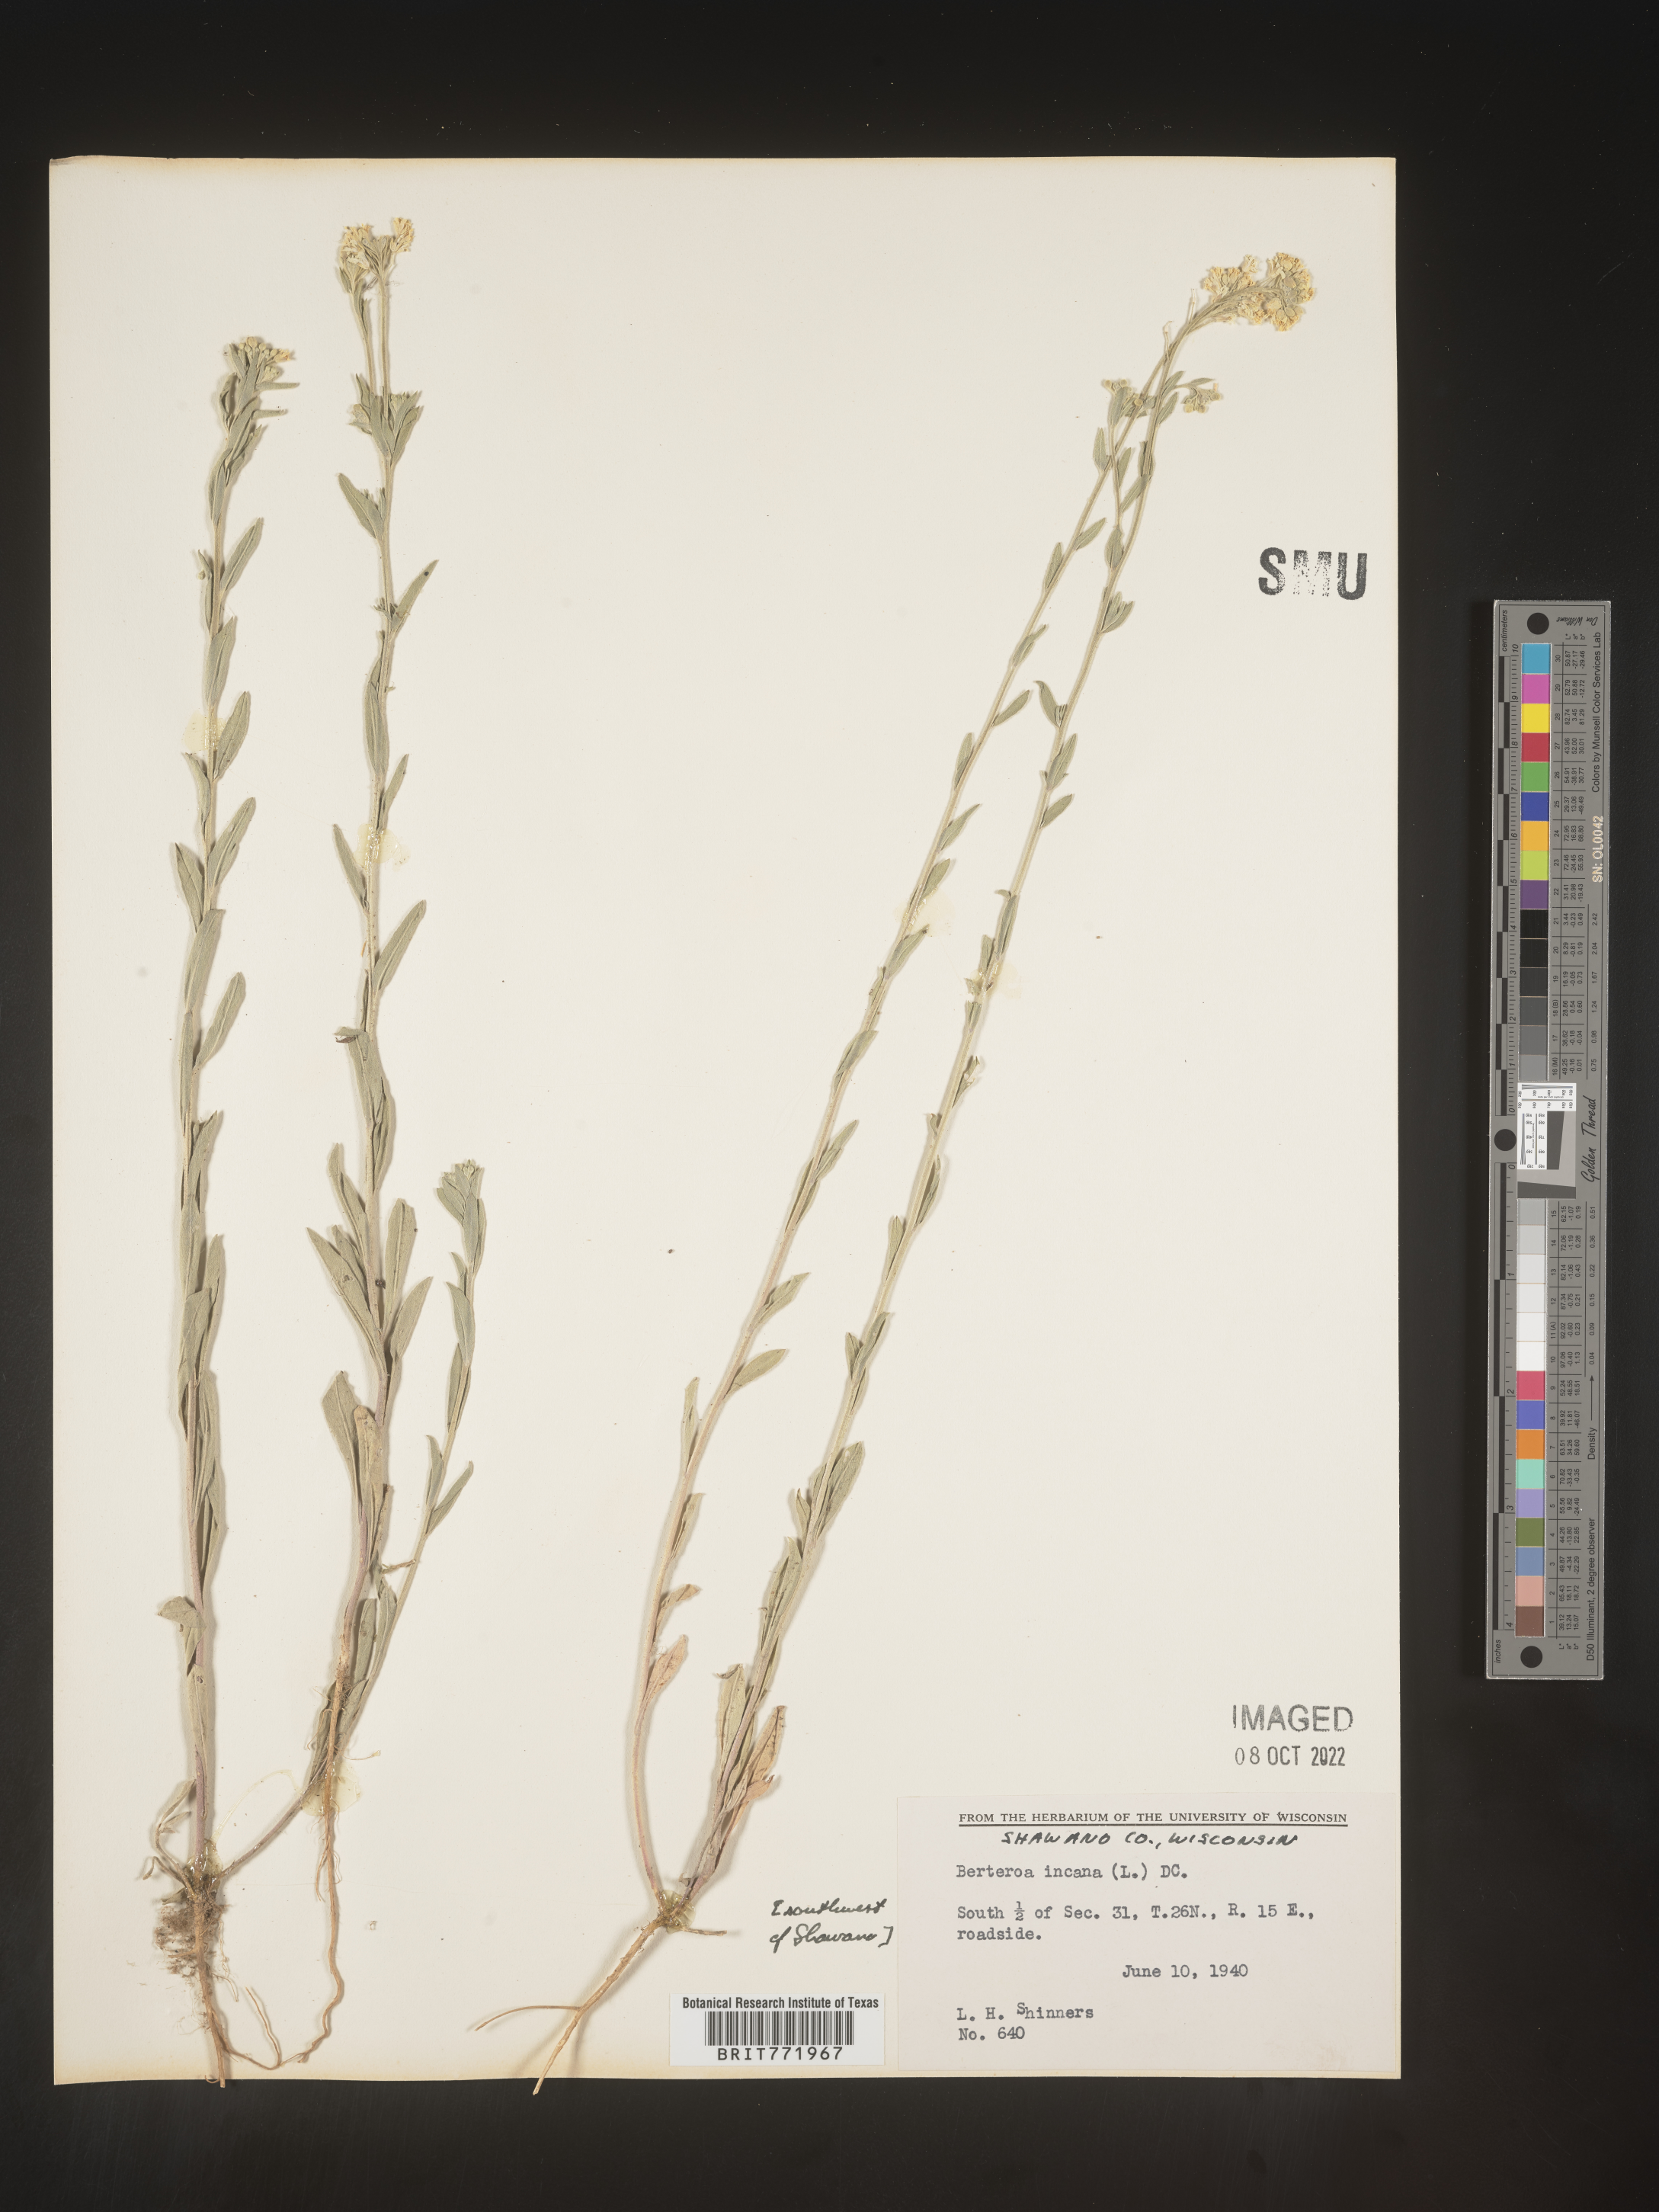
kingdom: Plantae
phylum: Tracheophyta
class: Magnoliopsida
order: Brassicales
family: Brassicaceae
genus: Berteroa
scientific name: Berteroa incana
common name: Hoary alison
